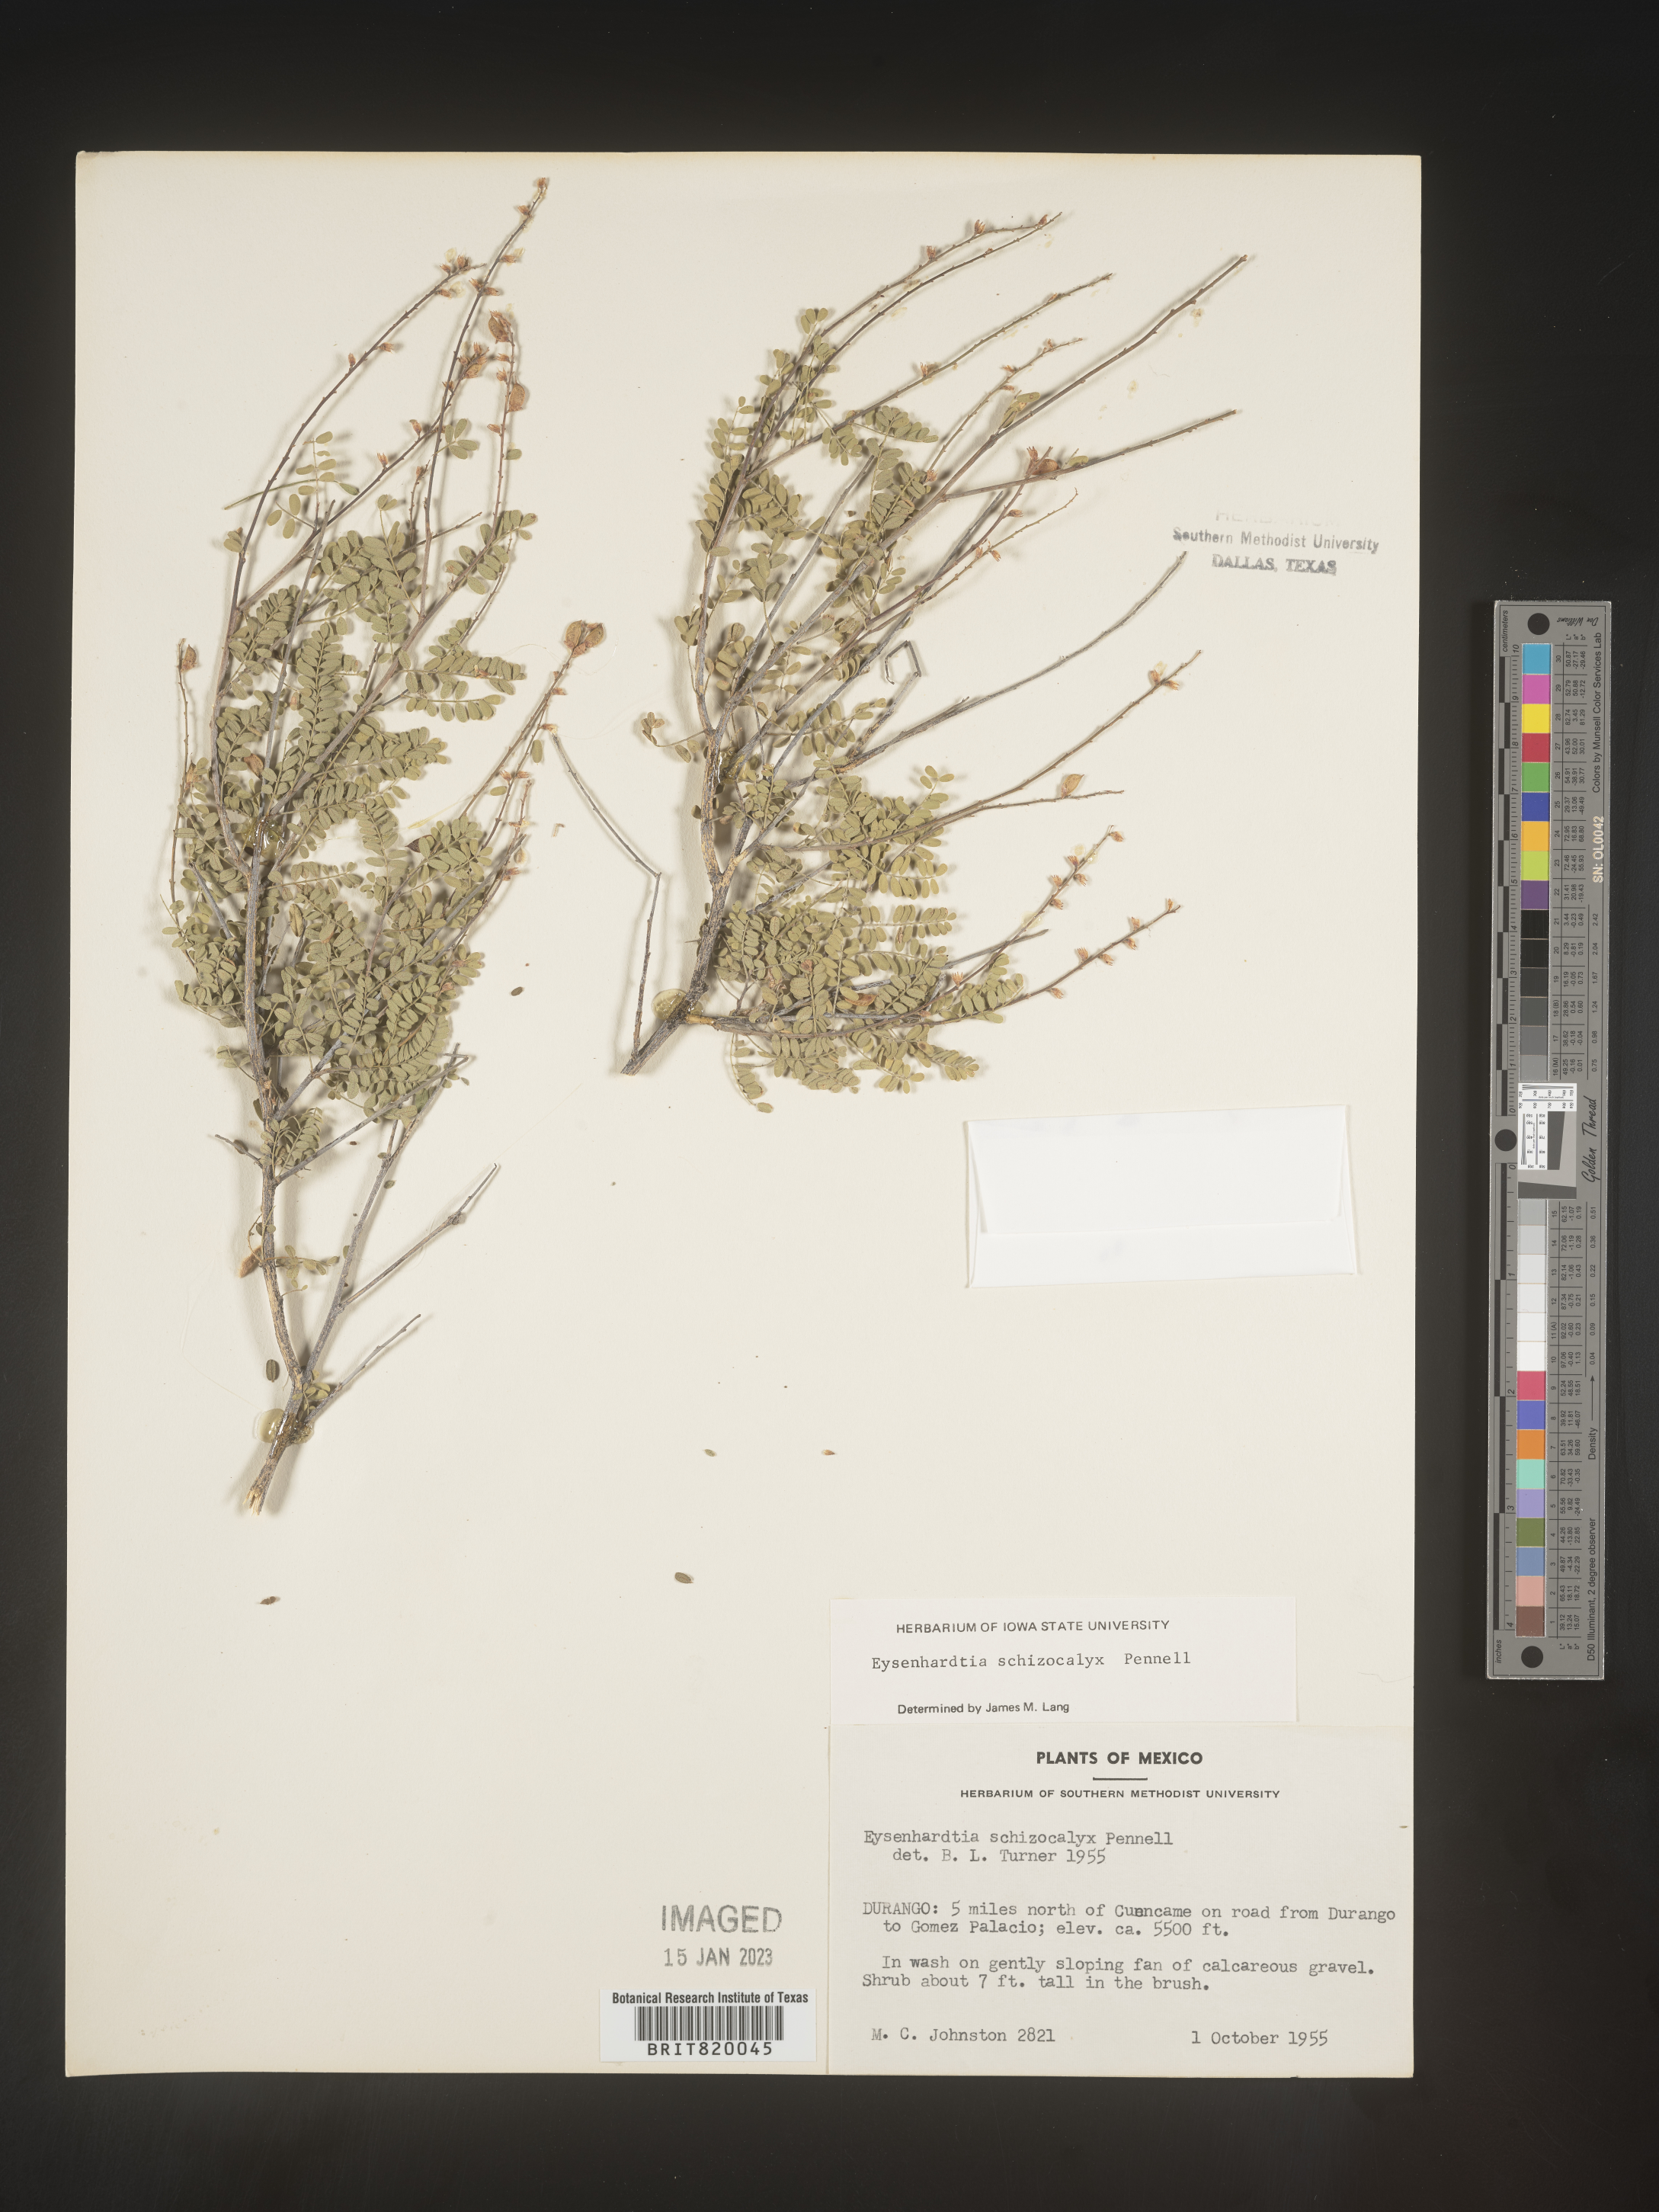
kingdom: Plantae
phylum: Tracheophyta
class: Magnoliopsida
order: Fabales
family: Fabaceae
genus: Eysenhardtia
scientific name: Eysenhardtia
